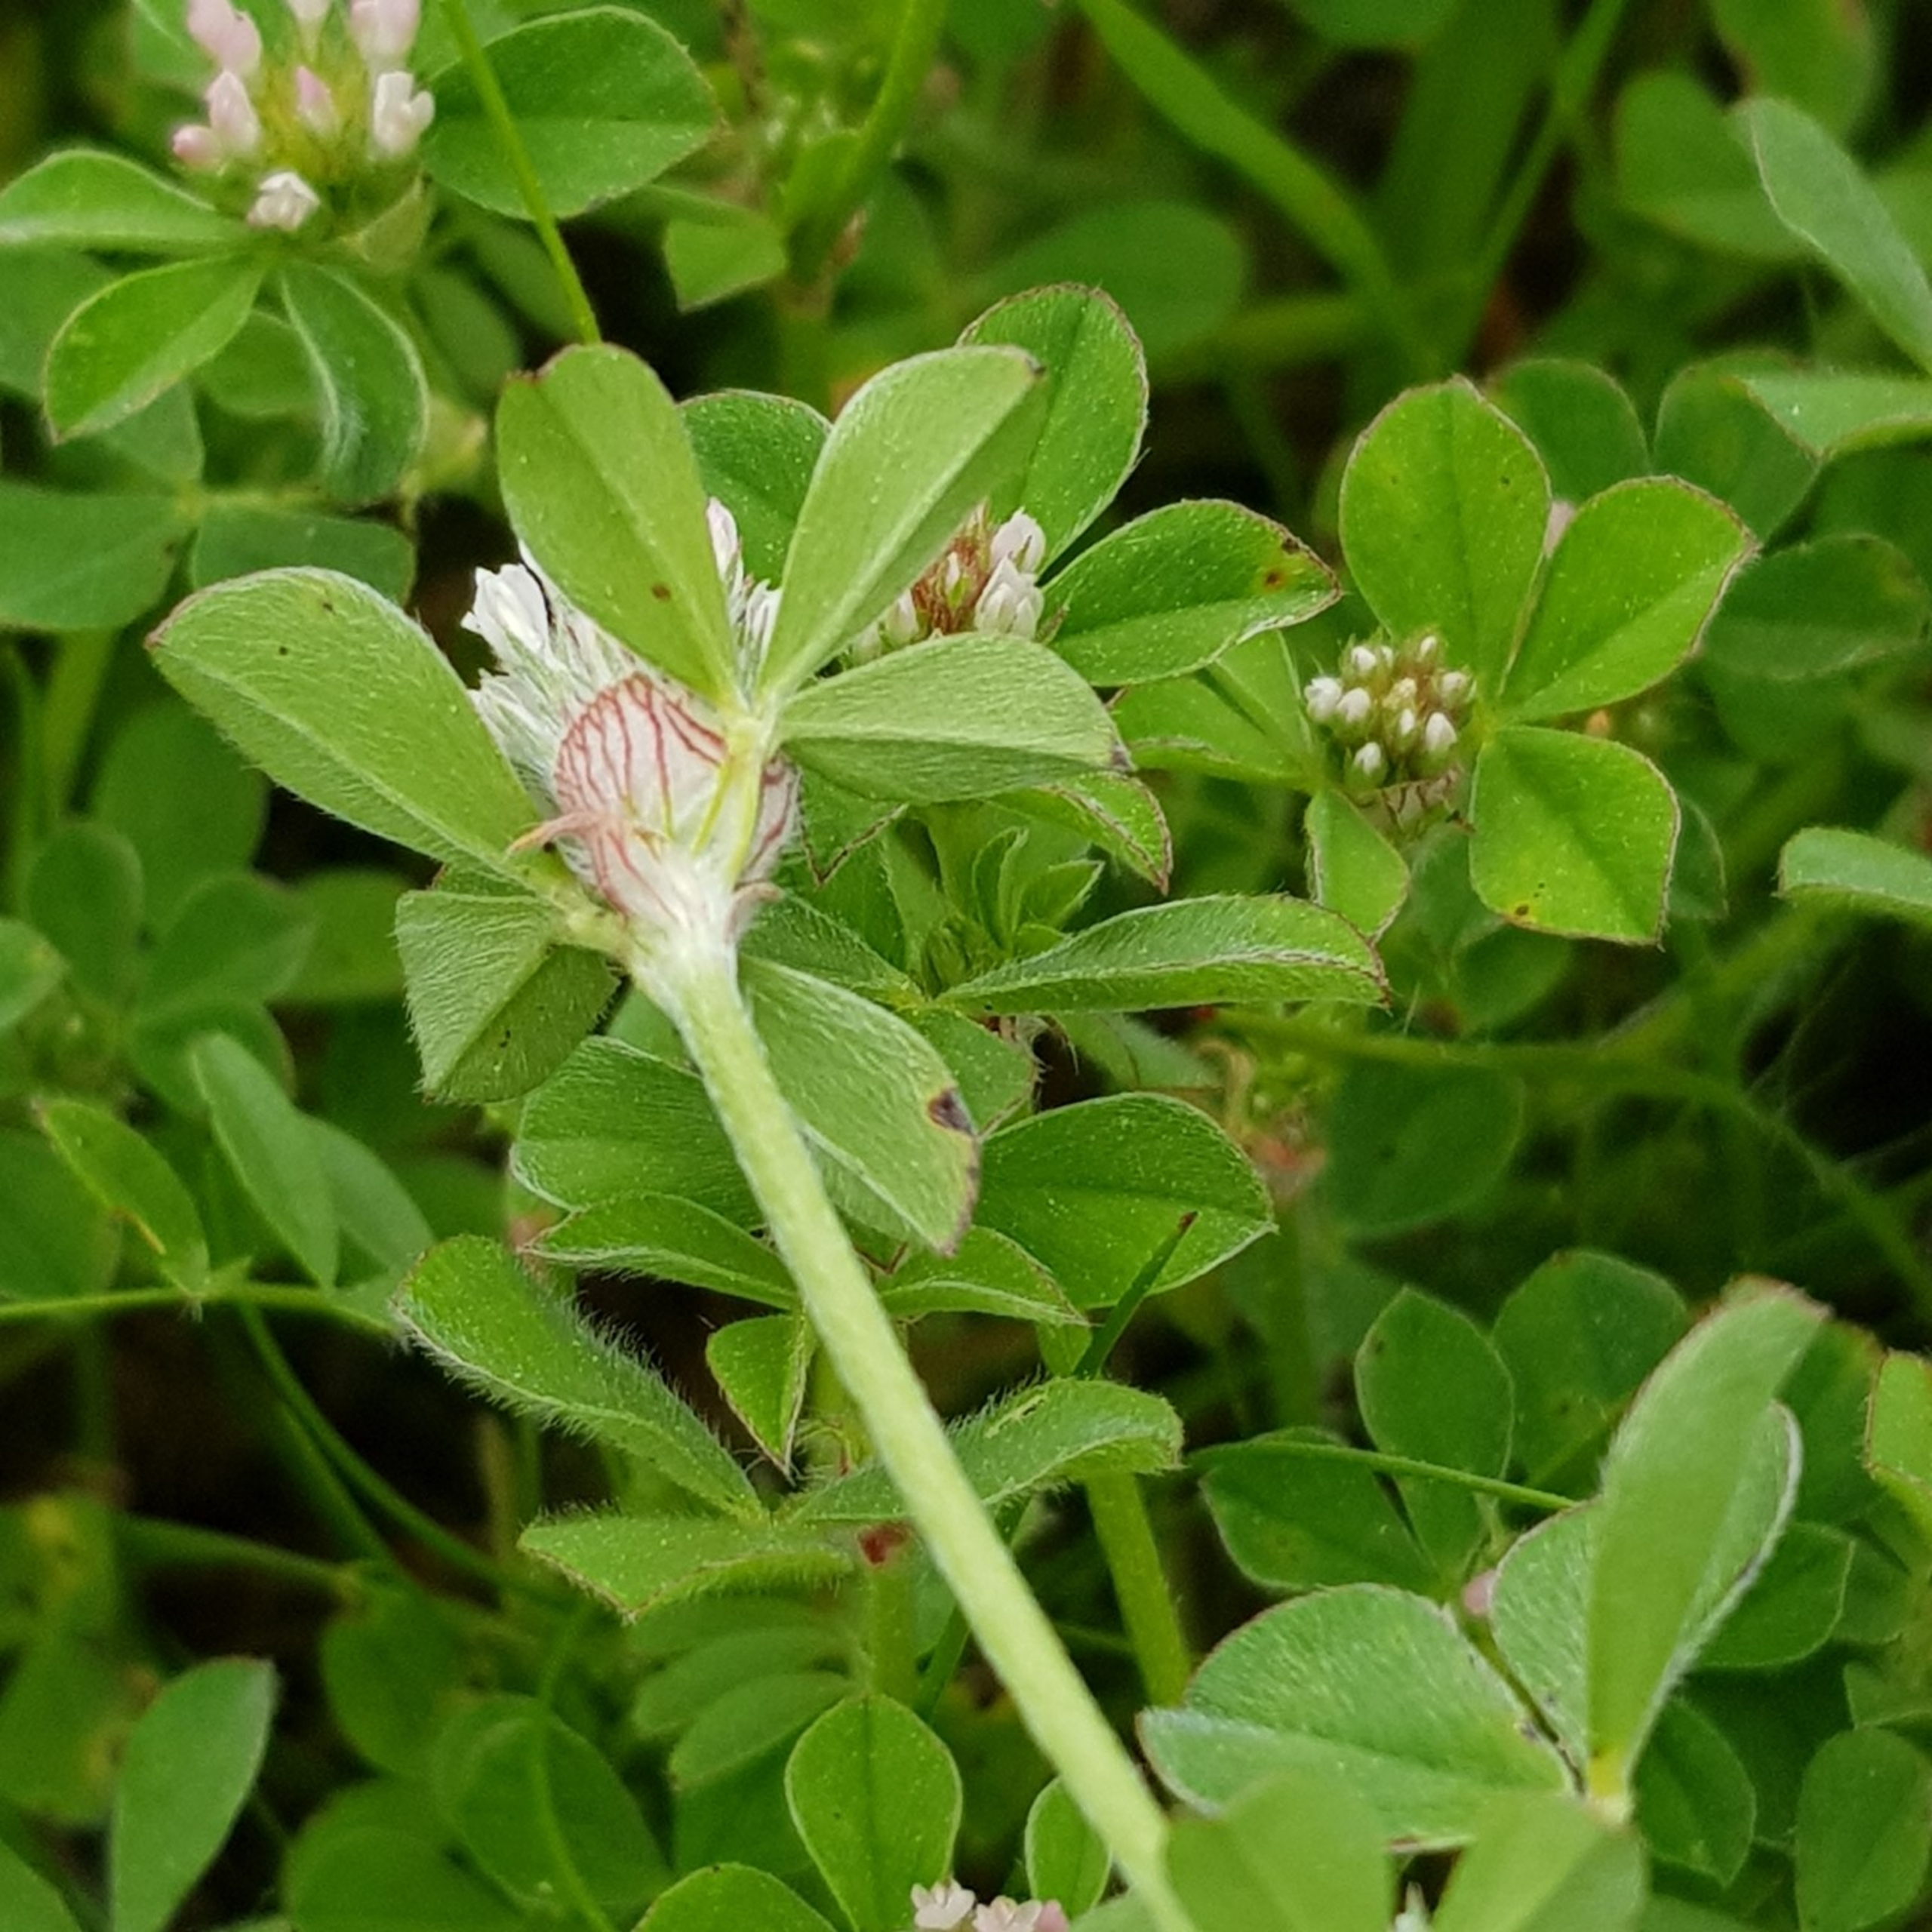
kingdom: Plantae
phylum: Tracheophyta
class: Magnoliopsida
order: Fabales
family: Fabaceae
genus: Trifolium
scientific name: Trifolium striatum
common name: Stribet kløver
